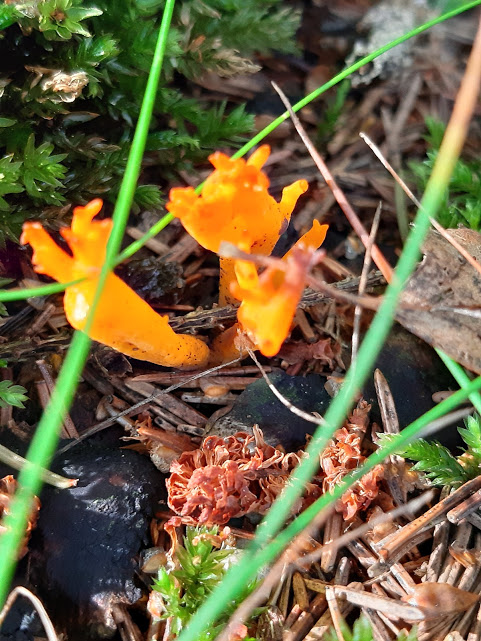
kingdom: Fungi
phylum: Basidiomycota
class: Dacrymycetes
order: Dacrymycetales
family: Dacrymycetaceae
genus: Calocera
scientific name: Calocera viscosa
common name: almindelig guldgaffel
